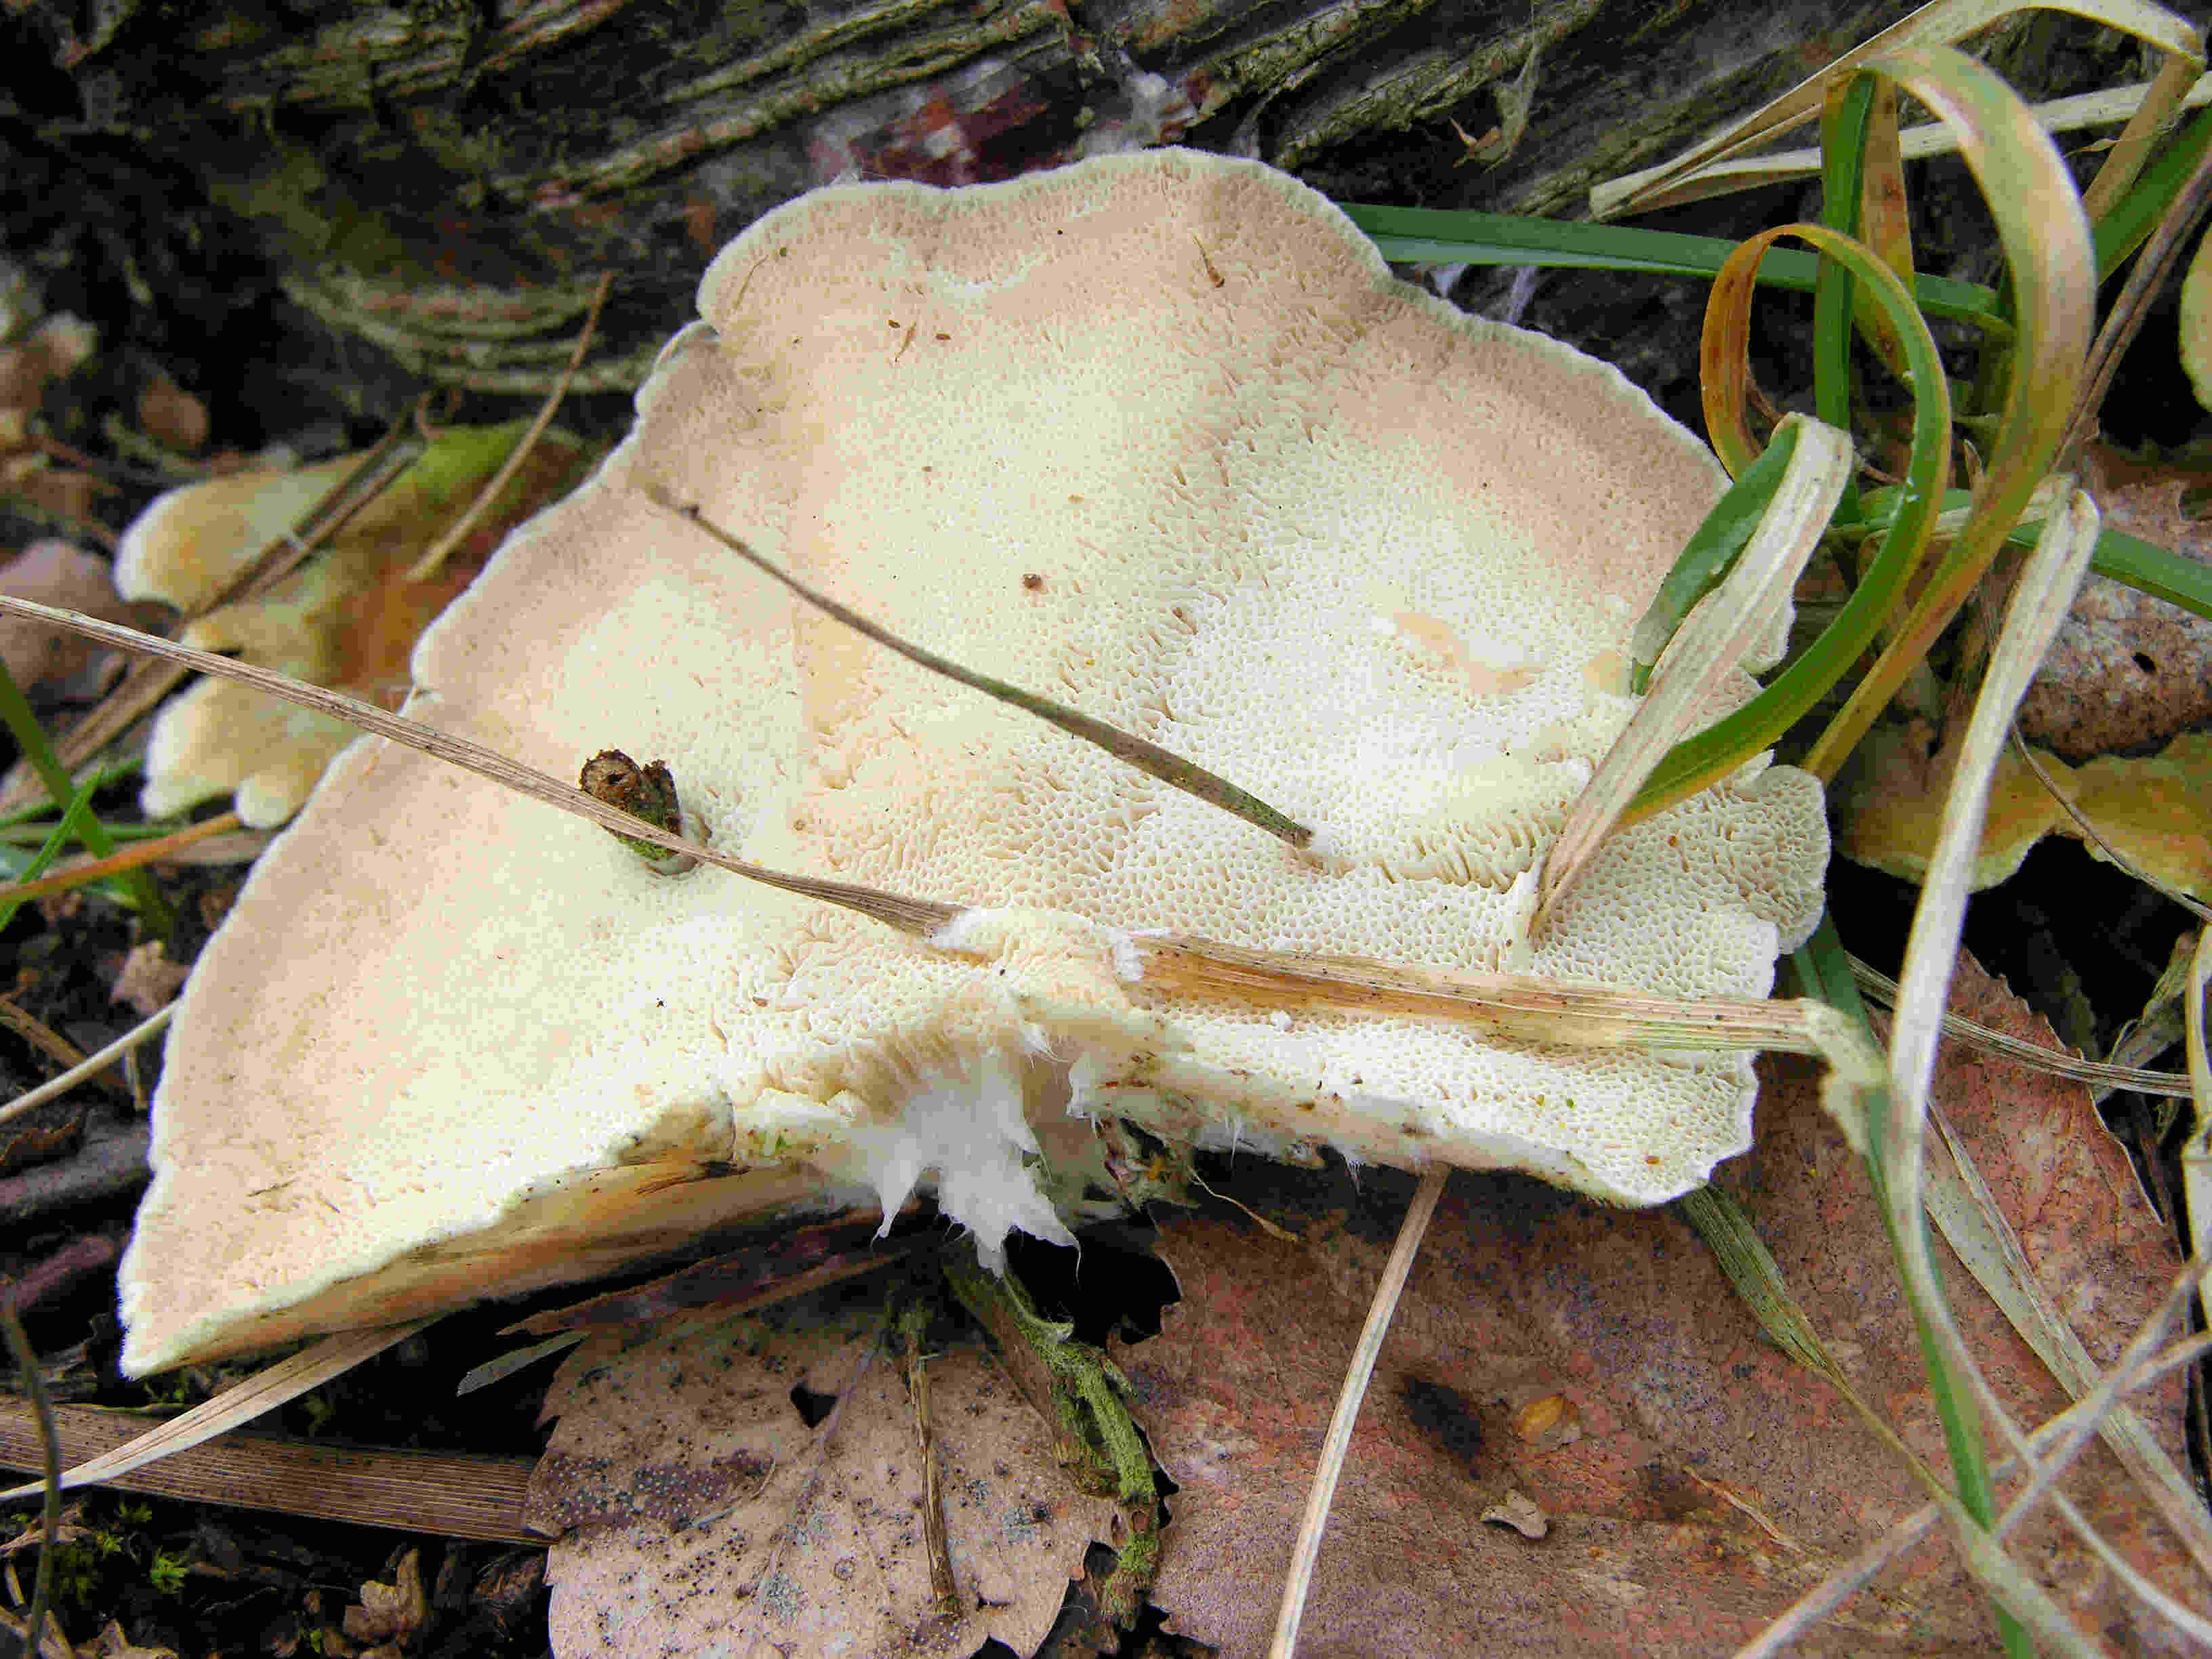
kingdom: Fungi
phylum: Basidiomycota
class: Agaricomycetes
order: Polyporales
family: Polyporaceae
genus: Trametes
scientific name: Trametes ochracea
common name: bæltet læderporesvamp
